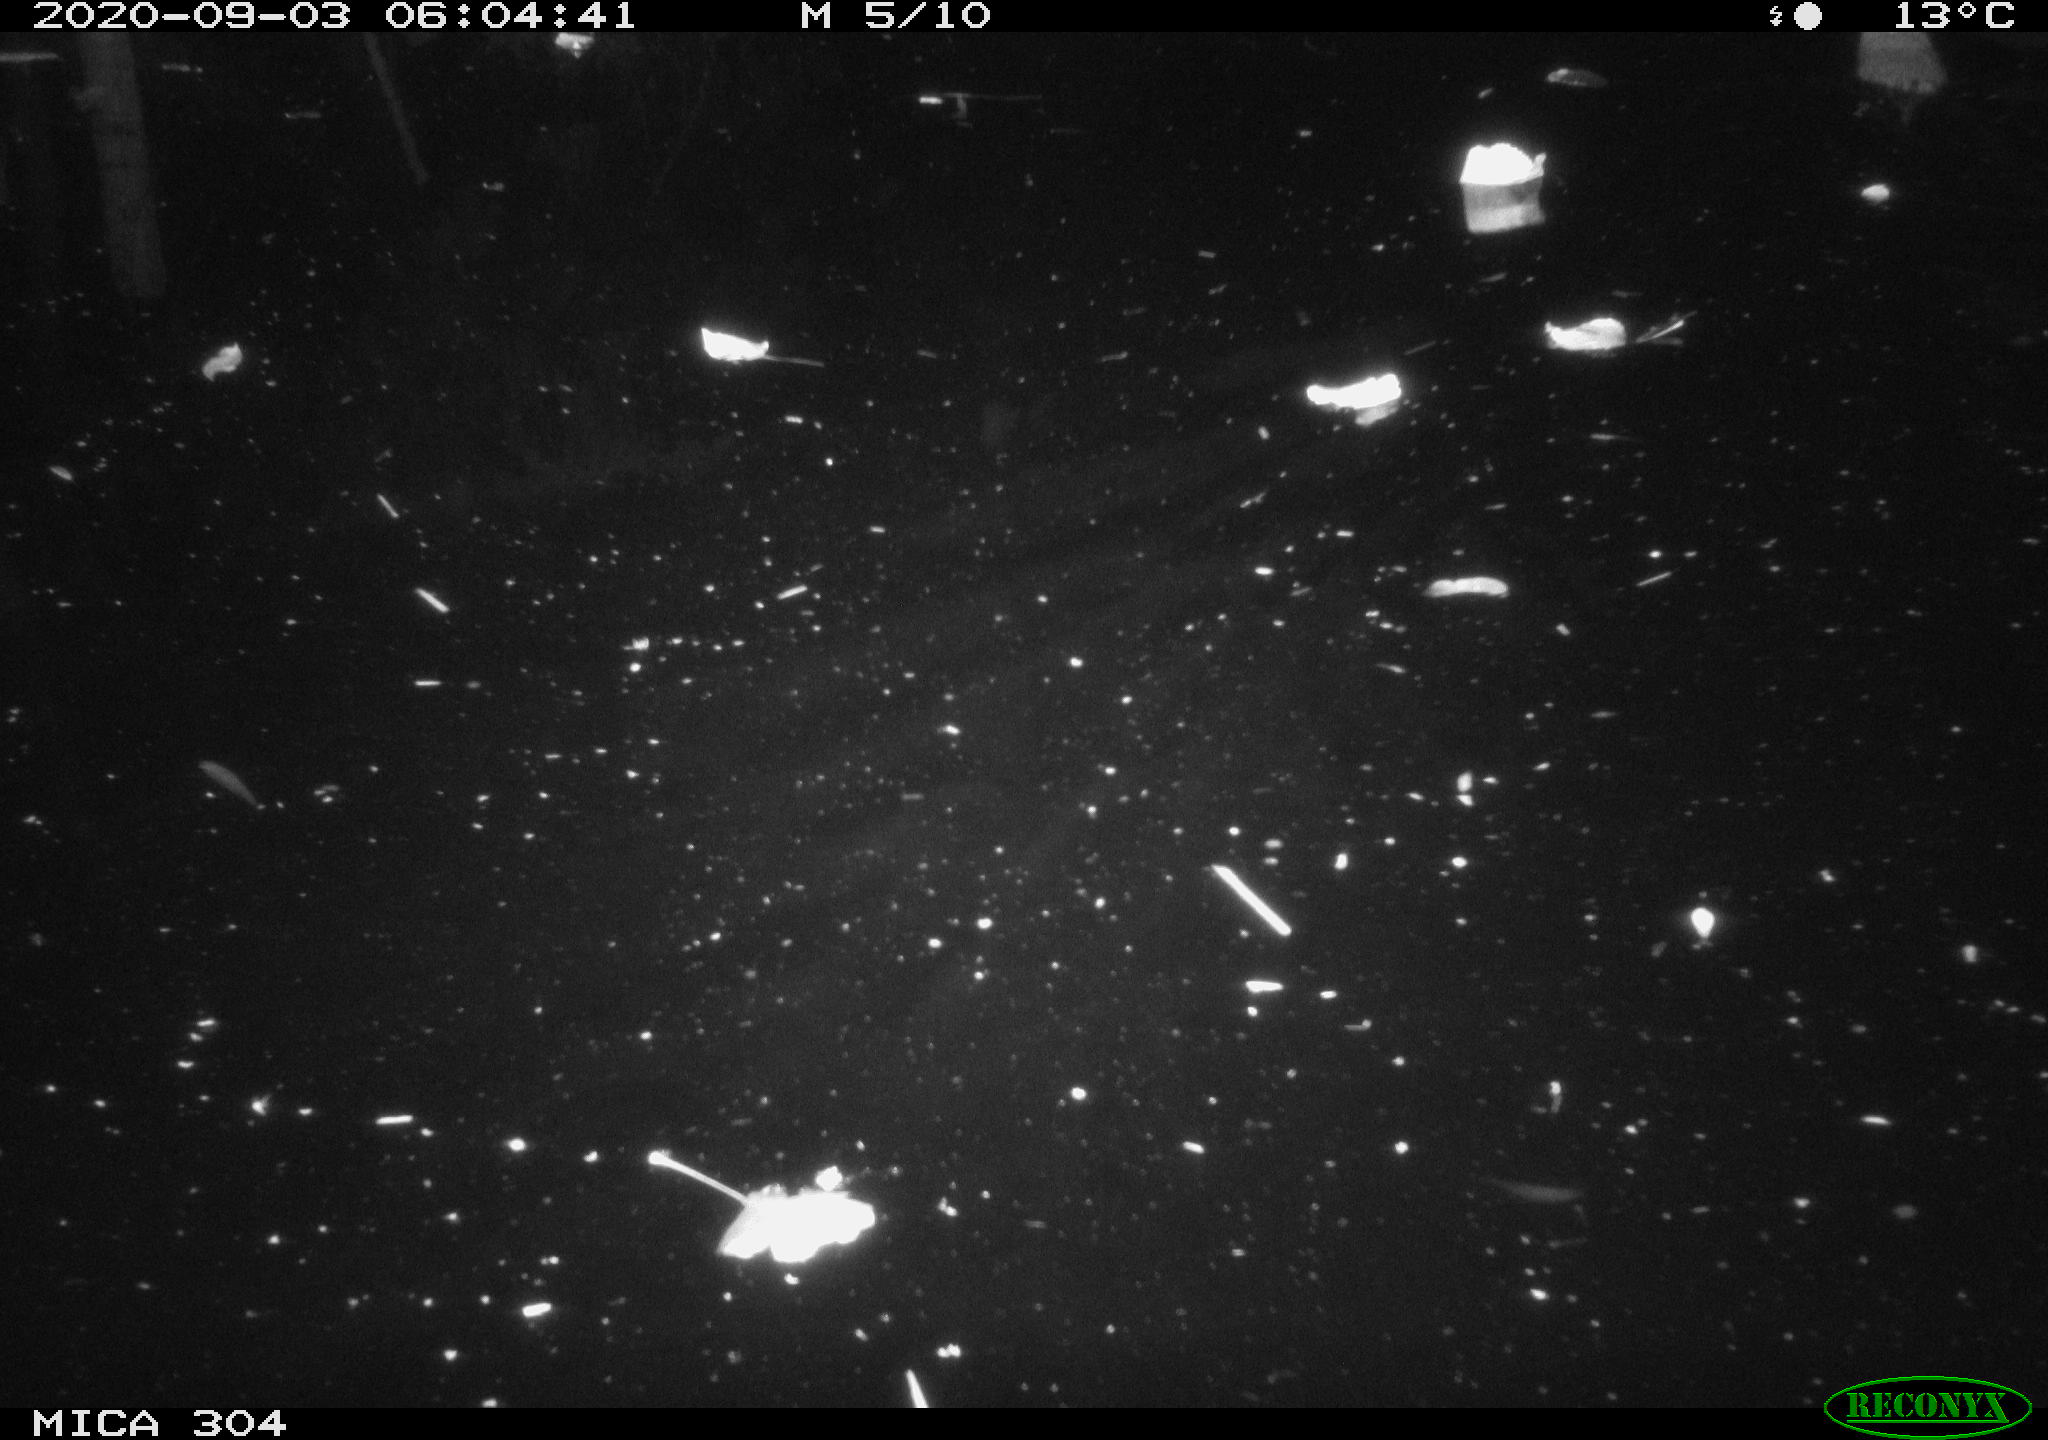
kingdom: Animalia
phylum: Chordata
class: Mammalia
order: Rodentia
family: Cricetidae
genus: Ondatra
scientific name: Ondatra zibethicus
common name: Muskrat
